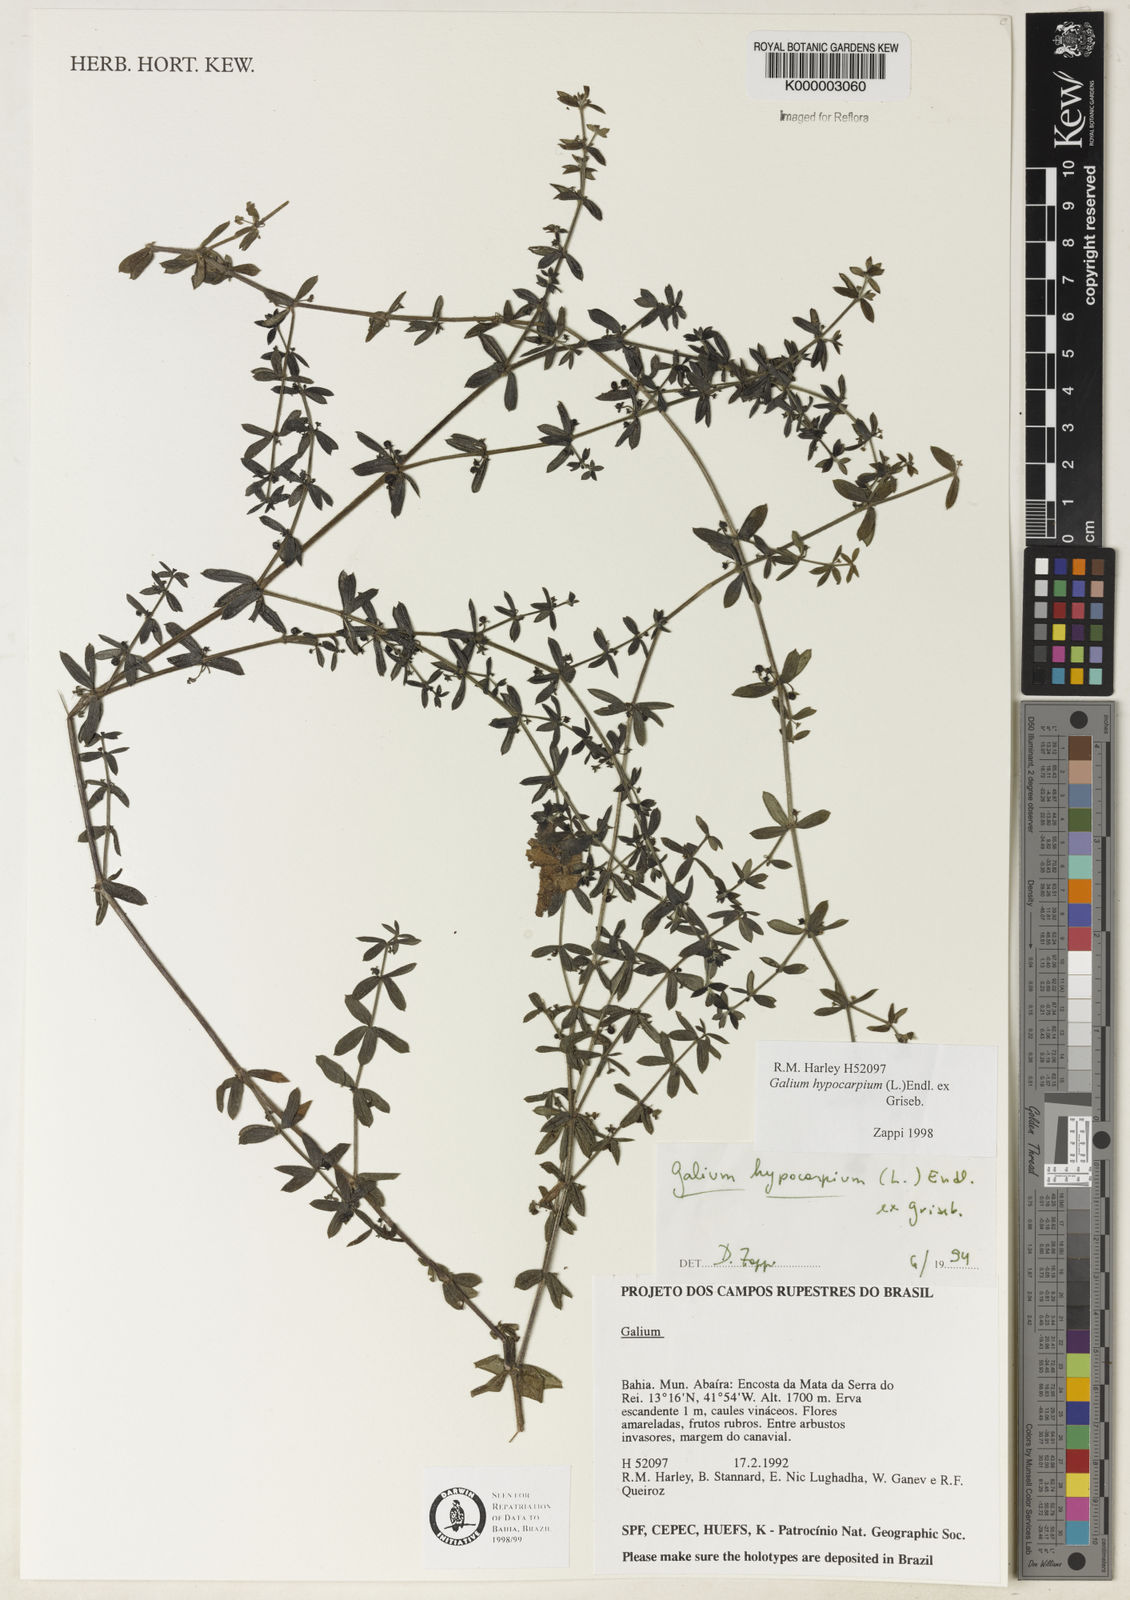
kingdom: Plantae
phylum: Tracheophyta
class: Magnoliopsida
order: Gentianales
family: Rubiaceae
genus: Galium
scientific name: Galium hypocarpium
